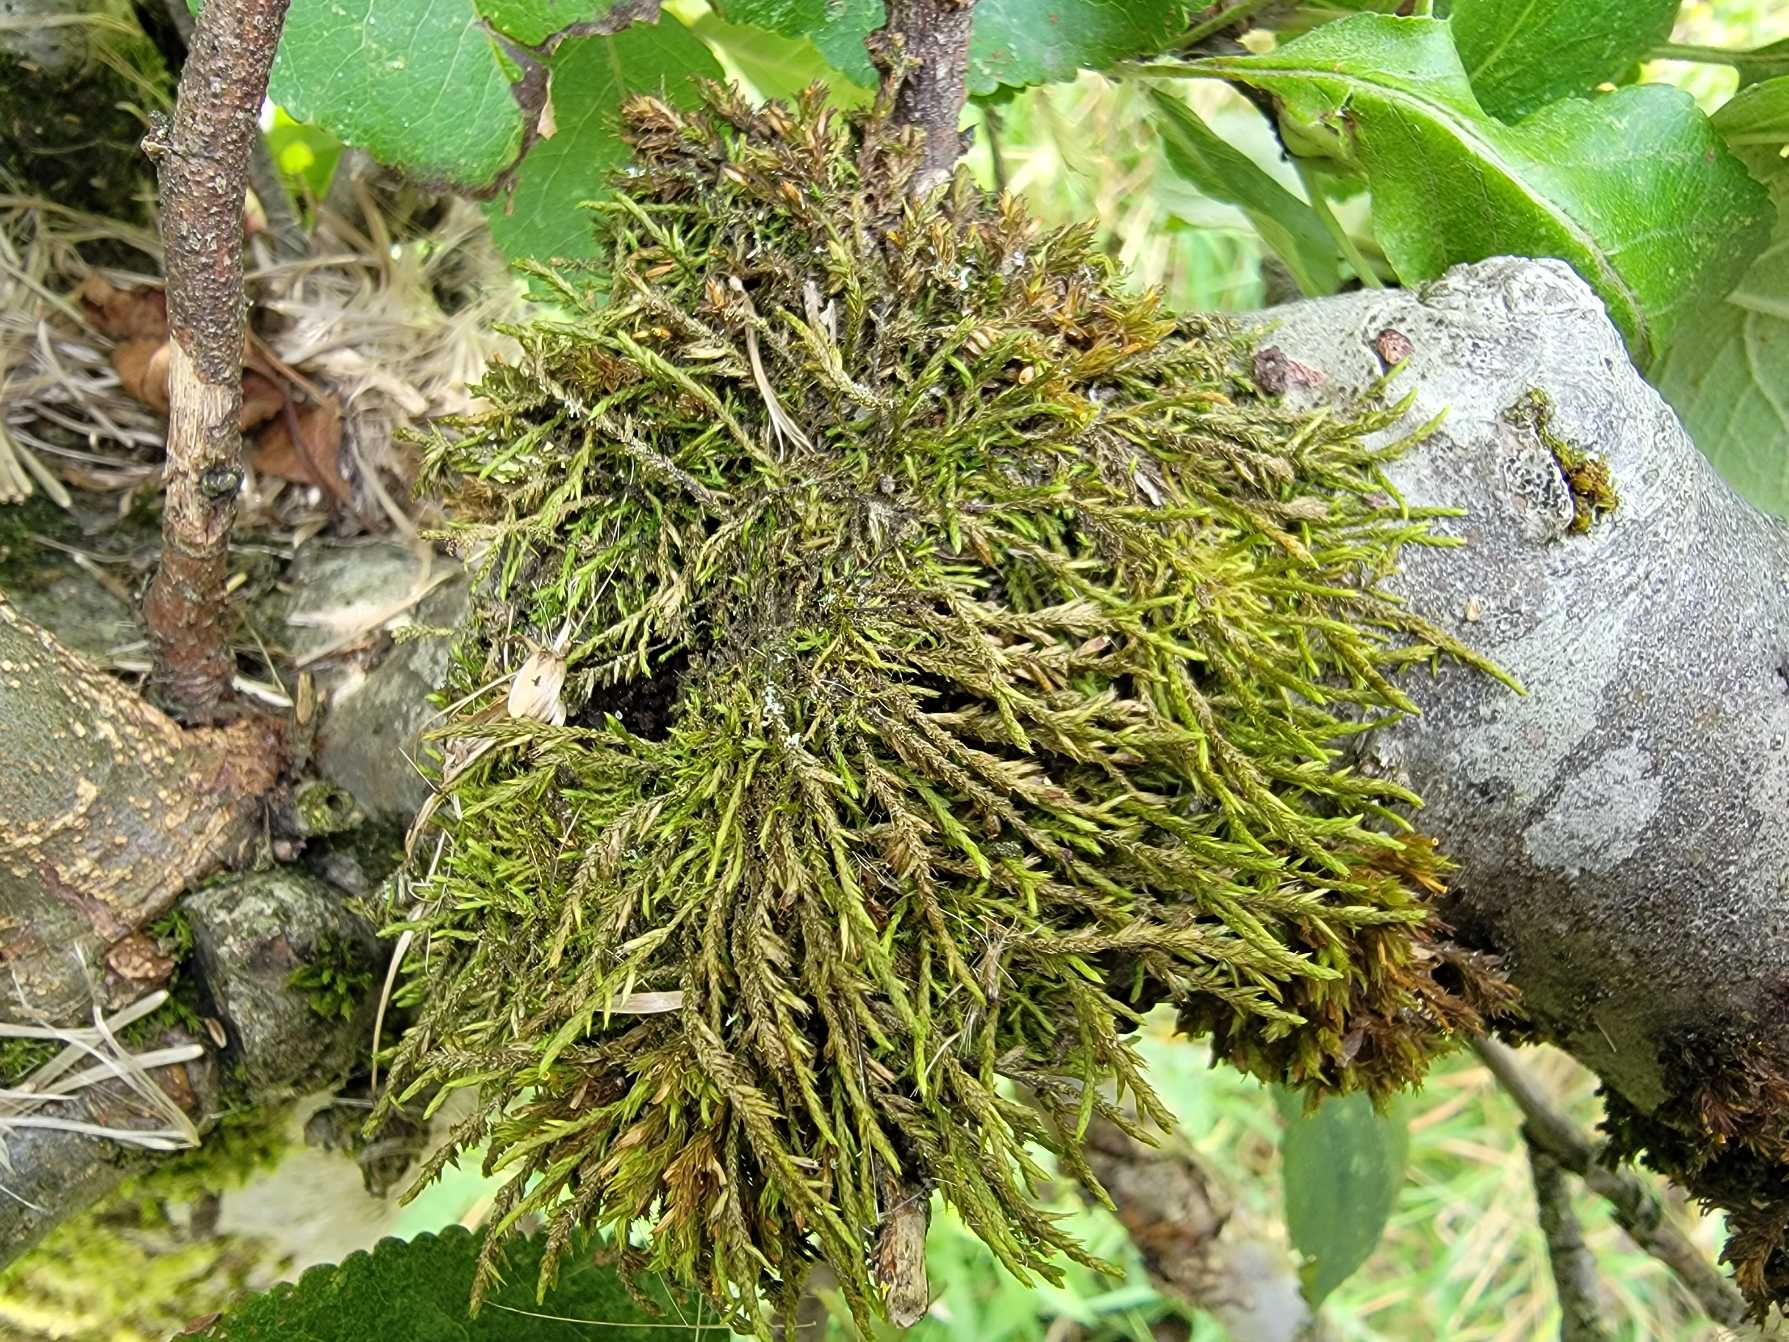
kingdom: Plantae
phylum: Bryophyta
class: Bryopsida
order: Hypnales
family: Cryphaeaceae
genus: Cryphaea
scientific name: Cryphaea heteromalla
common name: Bark-dækmos
